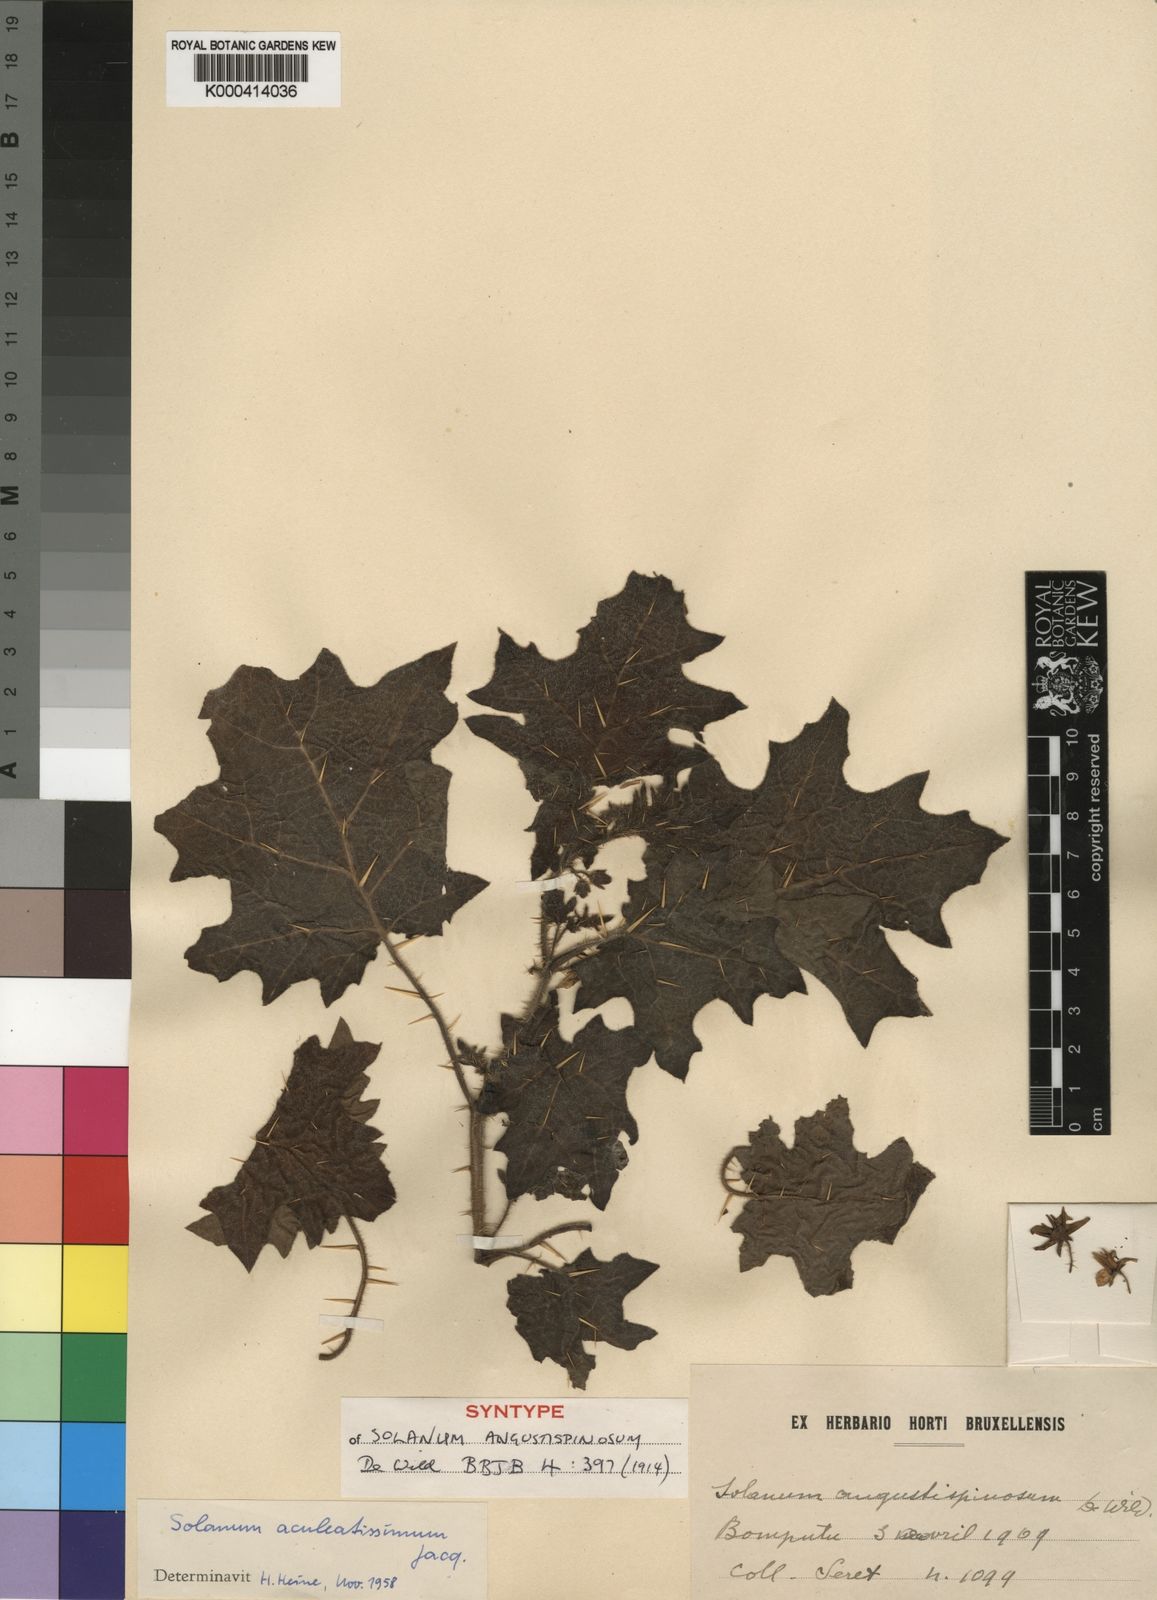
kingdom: Plantae
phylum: Tracheophyta
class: Magnoliopsida
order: Solanales
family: Solanaceae
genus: Solanum
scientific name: Solanum aculeatissimum
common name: Dutch eggplant
